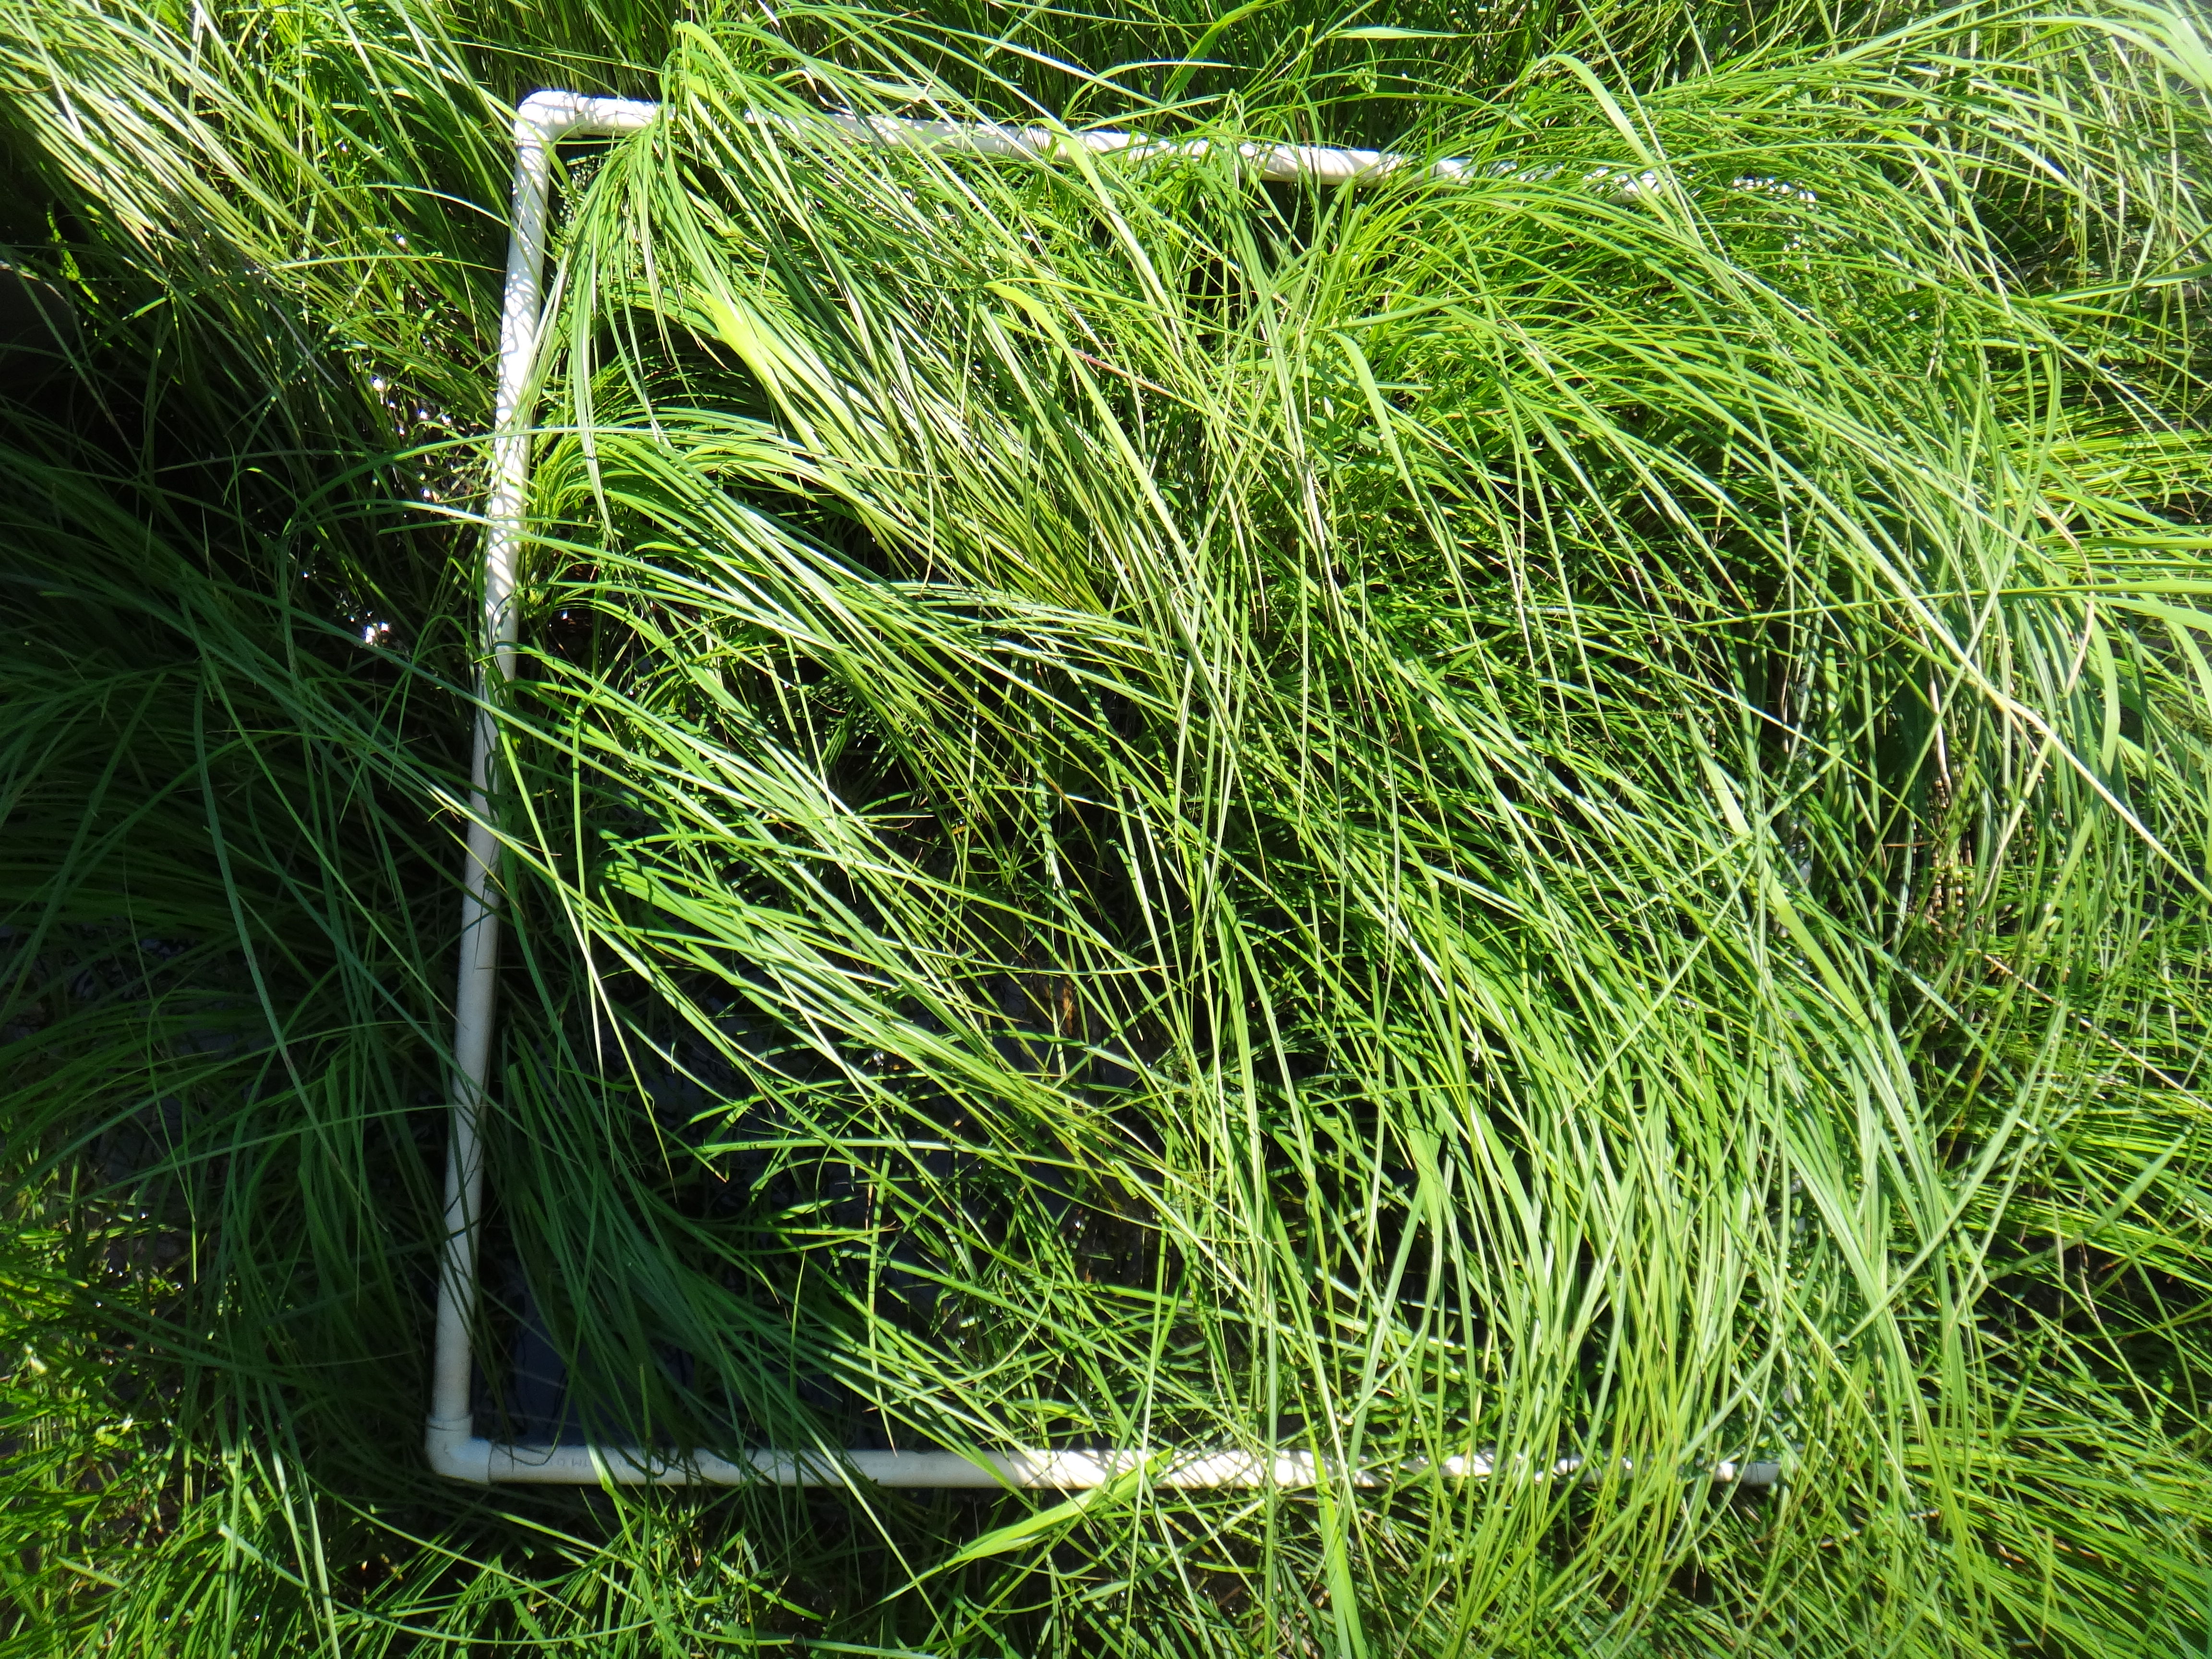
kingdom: Plantae
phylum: Tracheophyta
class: Liliopsida
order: Poales
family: Cyperaceae
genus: Carex
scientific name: Carex aquatilis
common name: Water sedge
